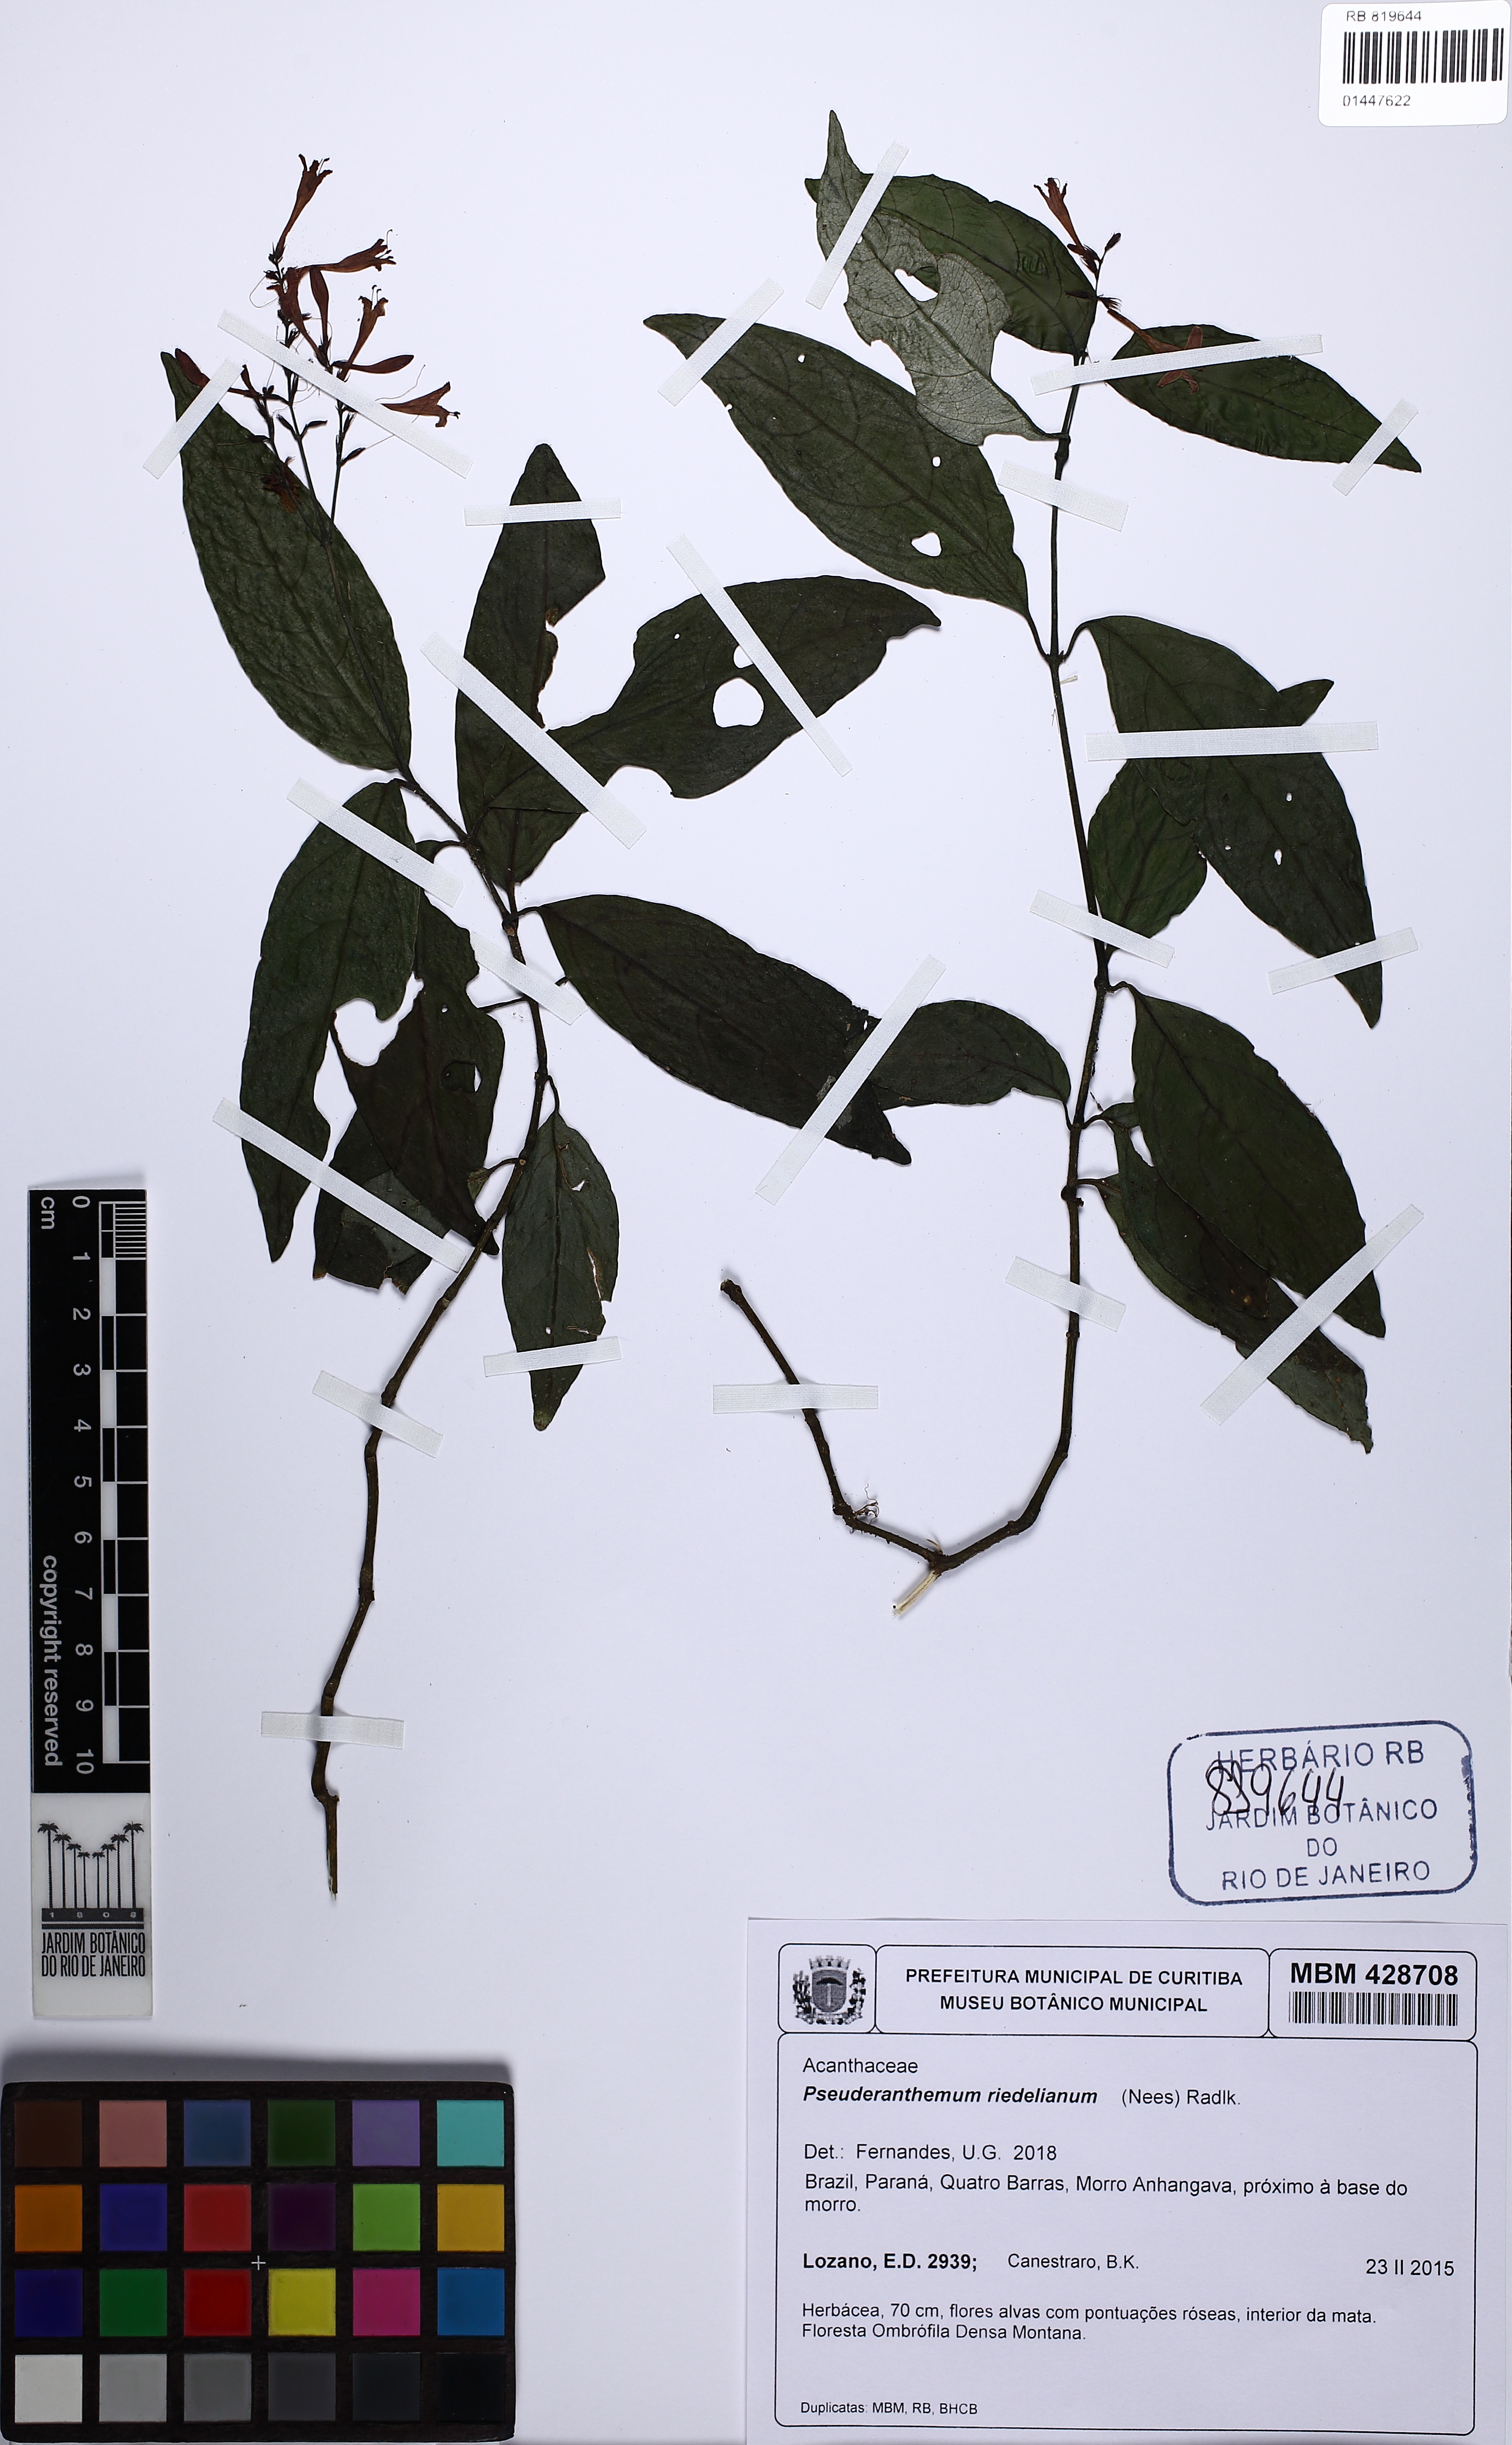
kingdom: Plantae
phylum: Tracheophyta
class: Magnoliopsida
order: Lamiales
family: Acanthaceae
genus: Pseuderanthemum
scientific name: Pseuderanthemum riedelianum
